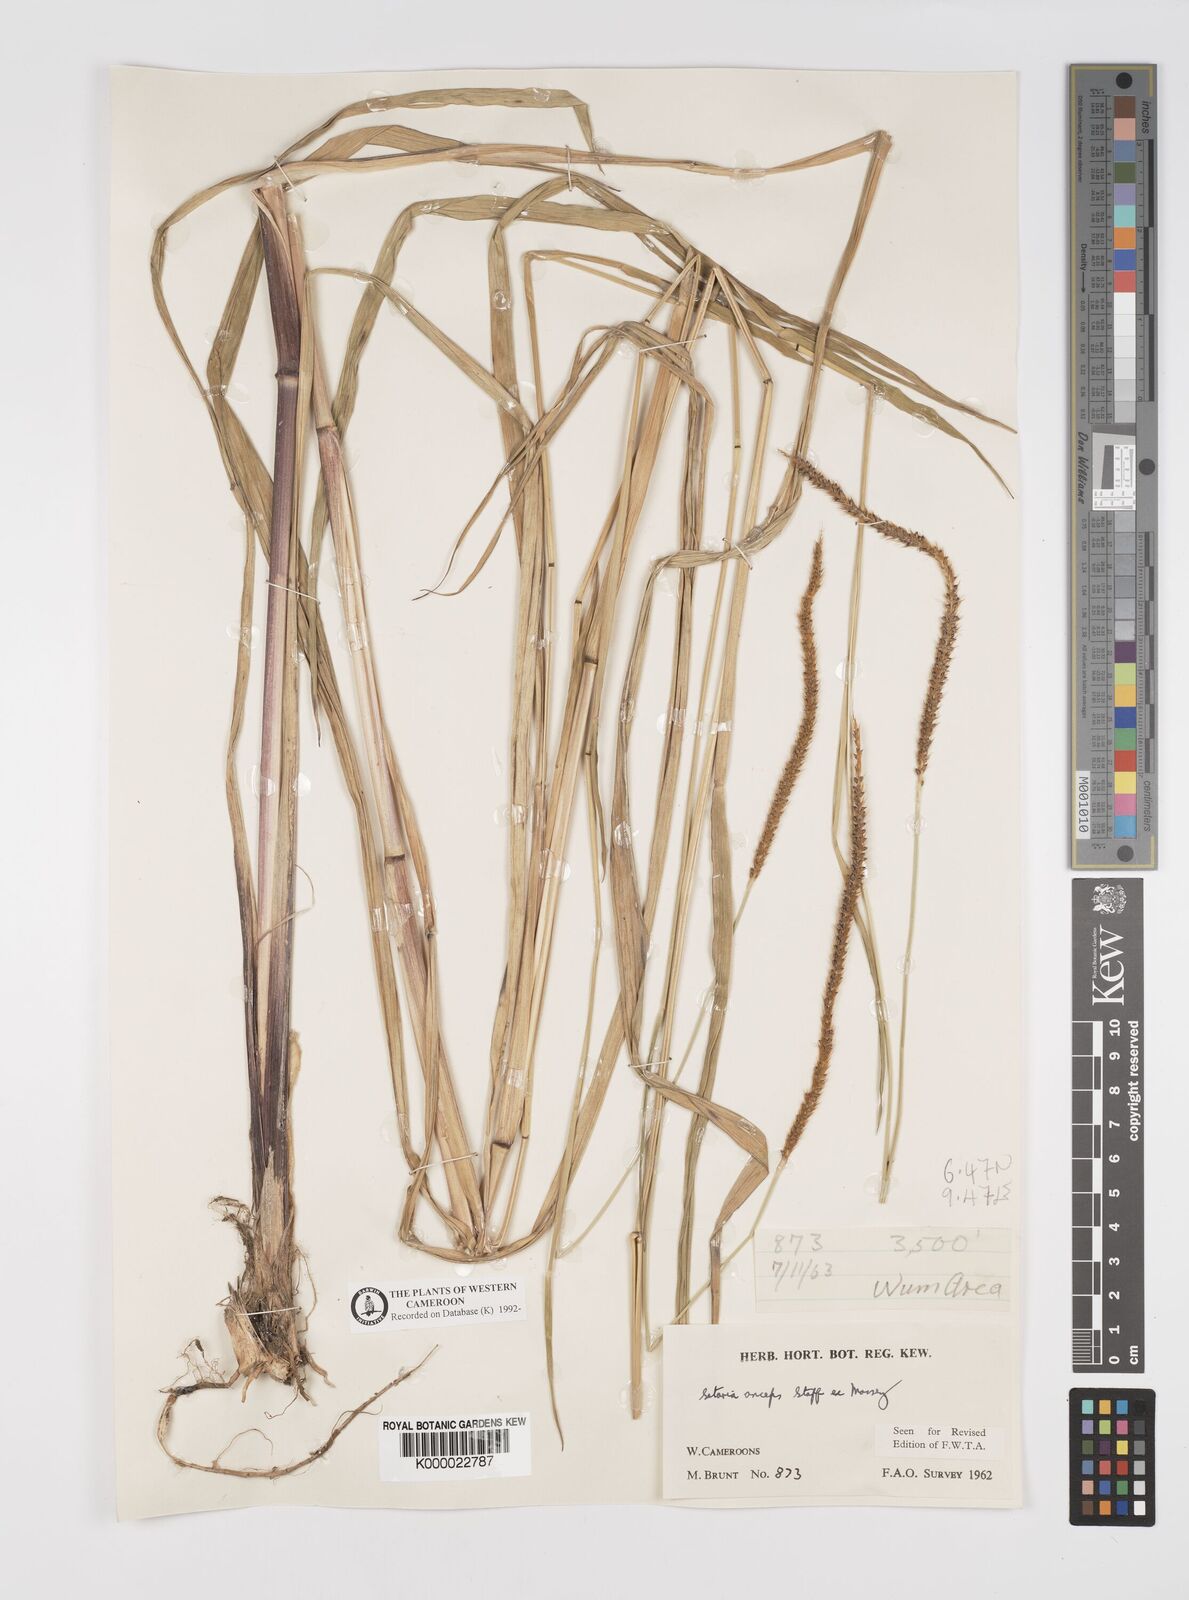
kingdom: Plantae
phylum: Tracheophyta
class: Liliopsida
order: Poales
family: Poaceae
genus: Setaria
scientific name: Setaria sphacelata
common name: African bristlegrass
